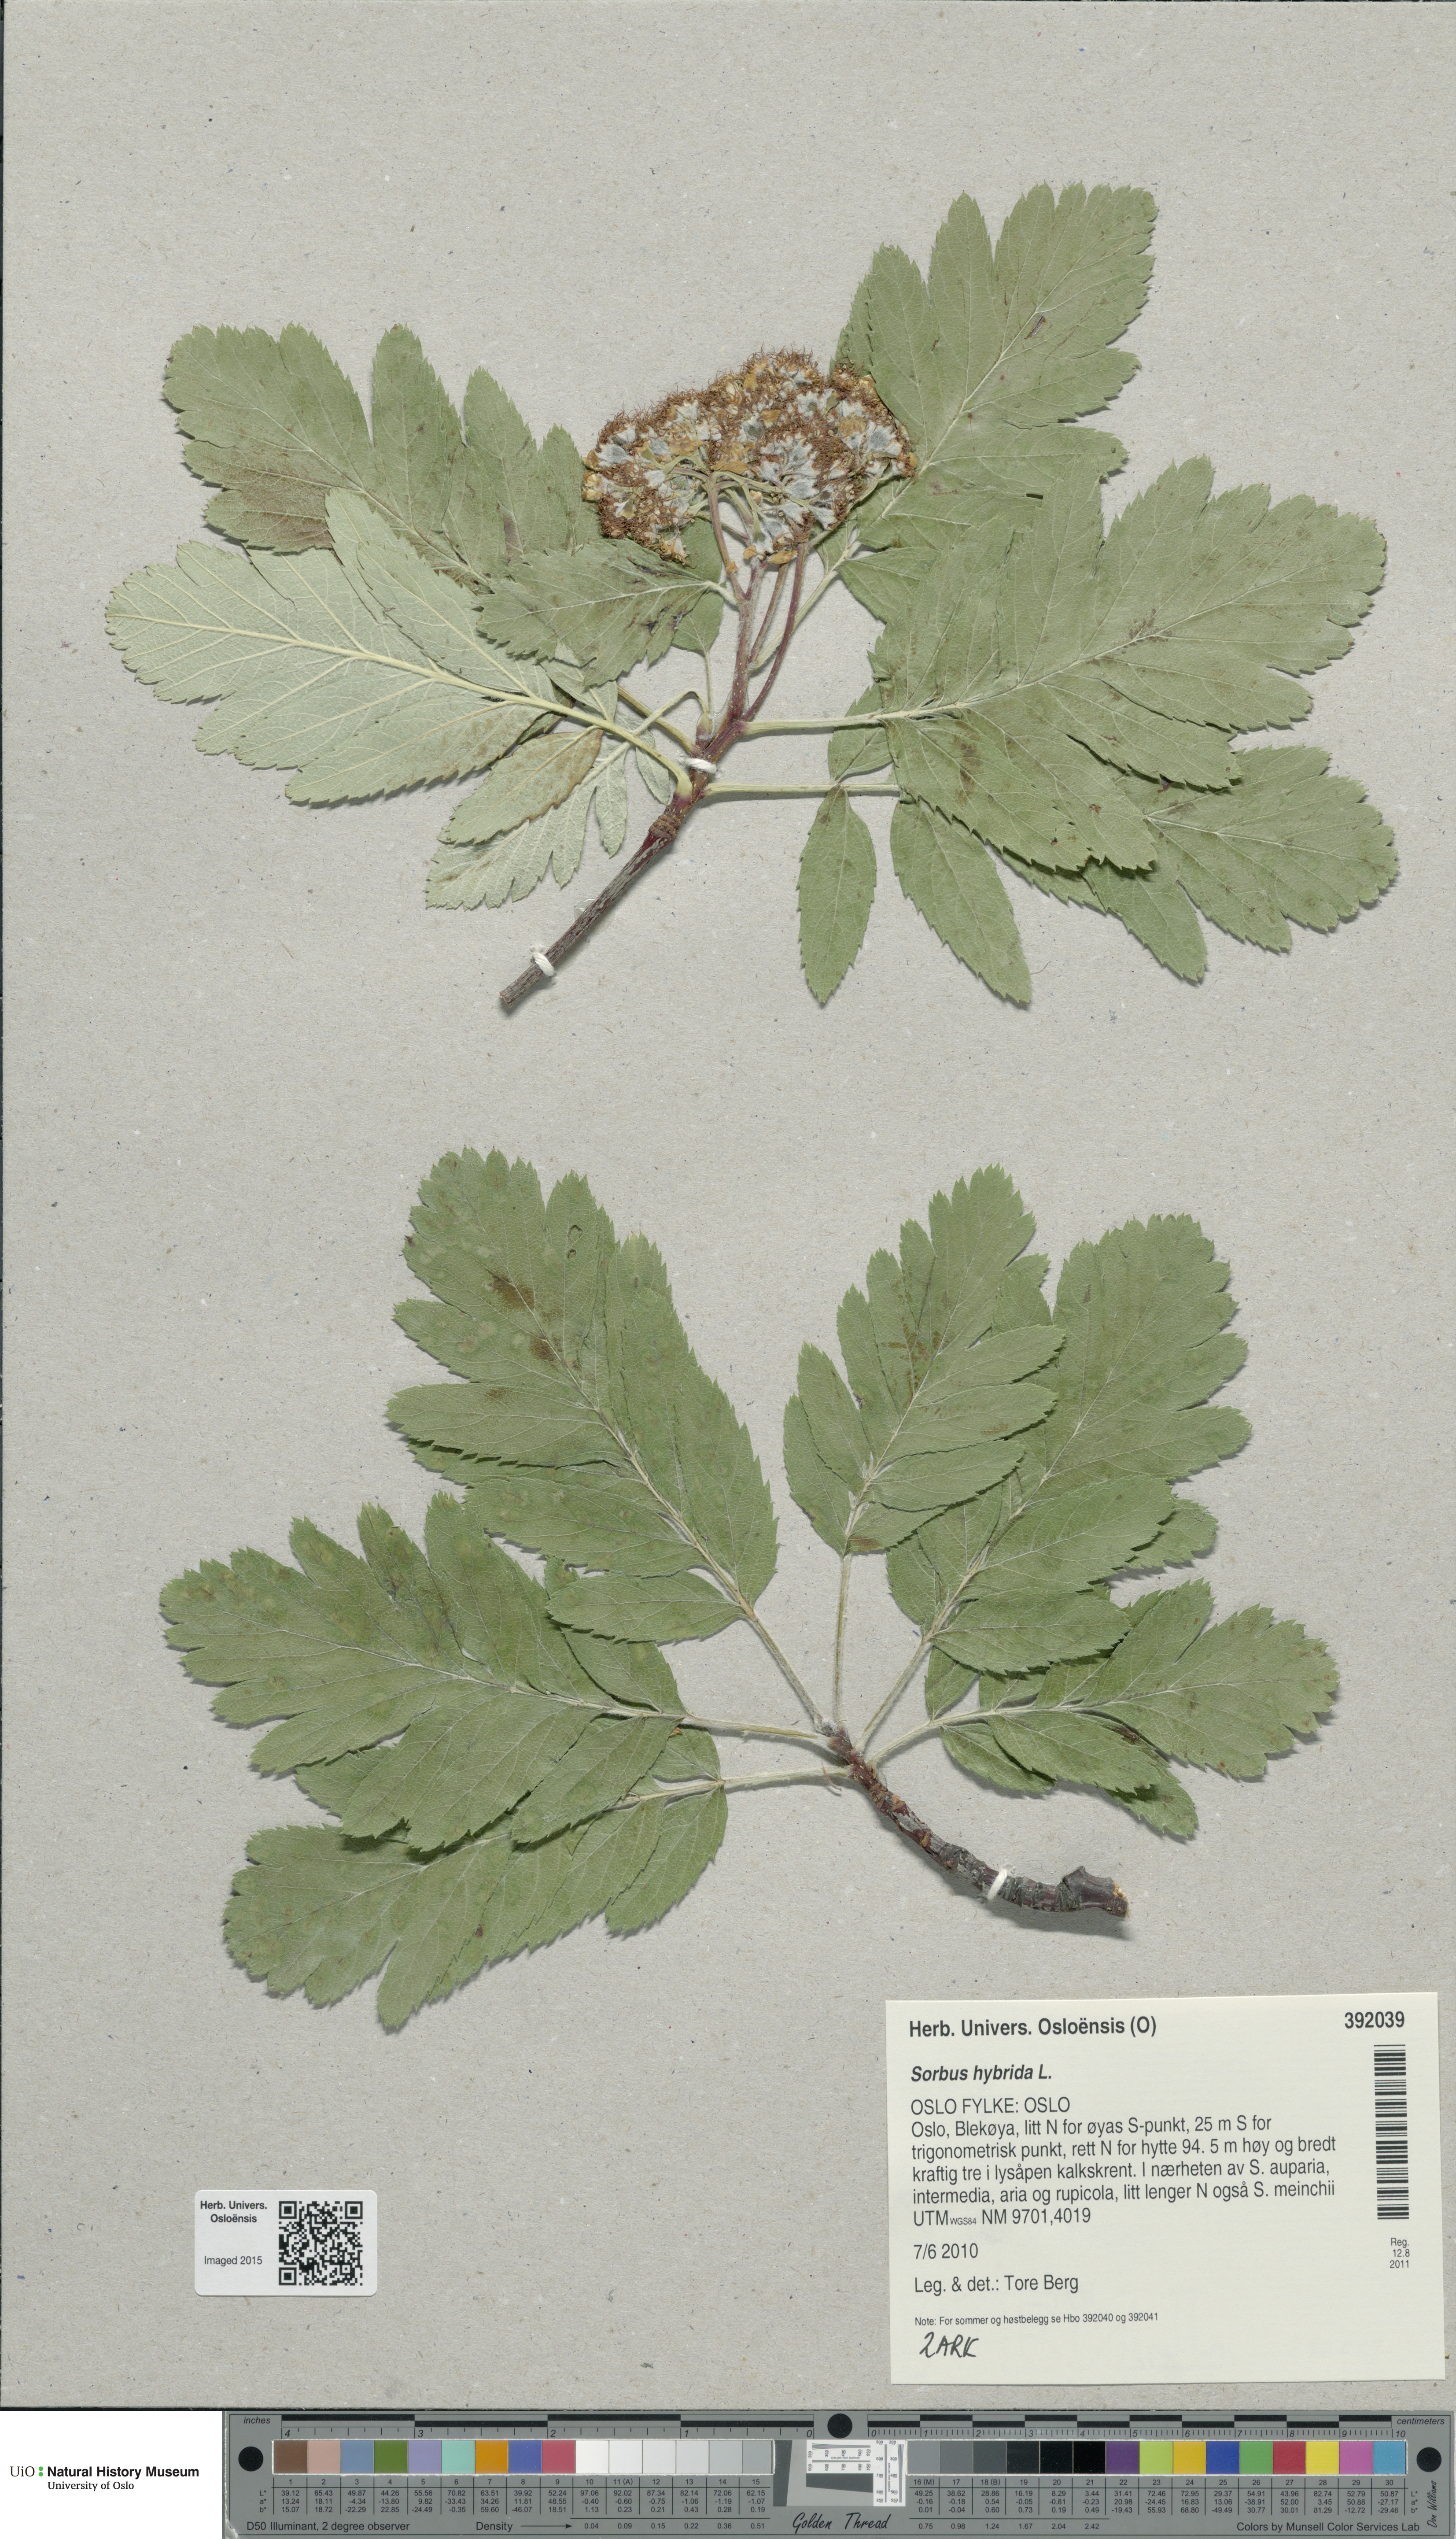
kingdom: Plantae
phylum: Tracheophyta
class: Magnoliopsida
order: Rosales
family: Rosaceae
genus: Hedlundia
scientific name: Hedlundia hybrida
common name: Swedish service-tree
